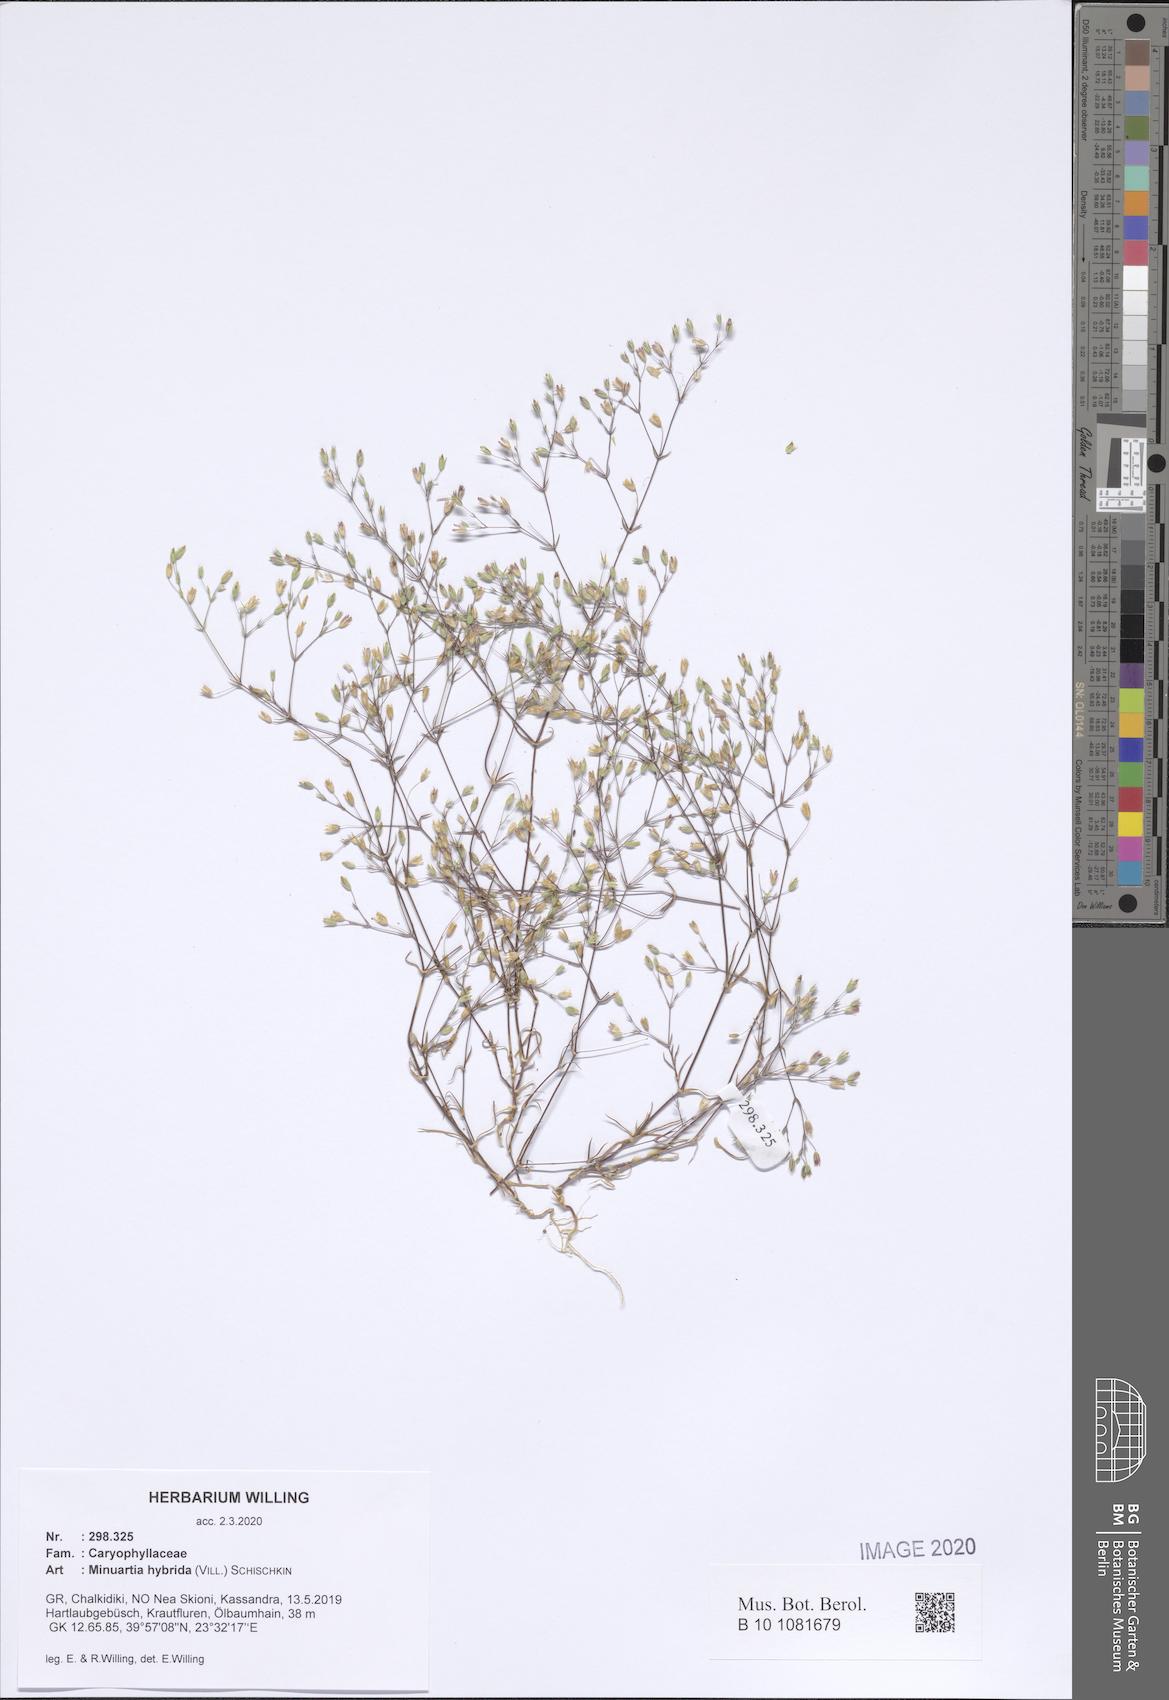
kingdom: Plantae
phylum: Tracheophyta
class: Magnoliopsida
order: Caryophyllales
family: Caryophyllaceae
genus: Sabulina
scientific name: Sabulina tenuifolia
